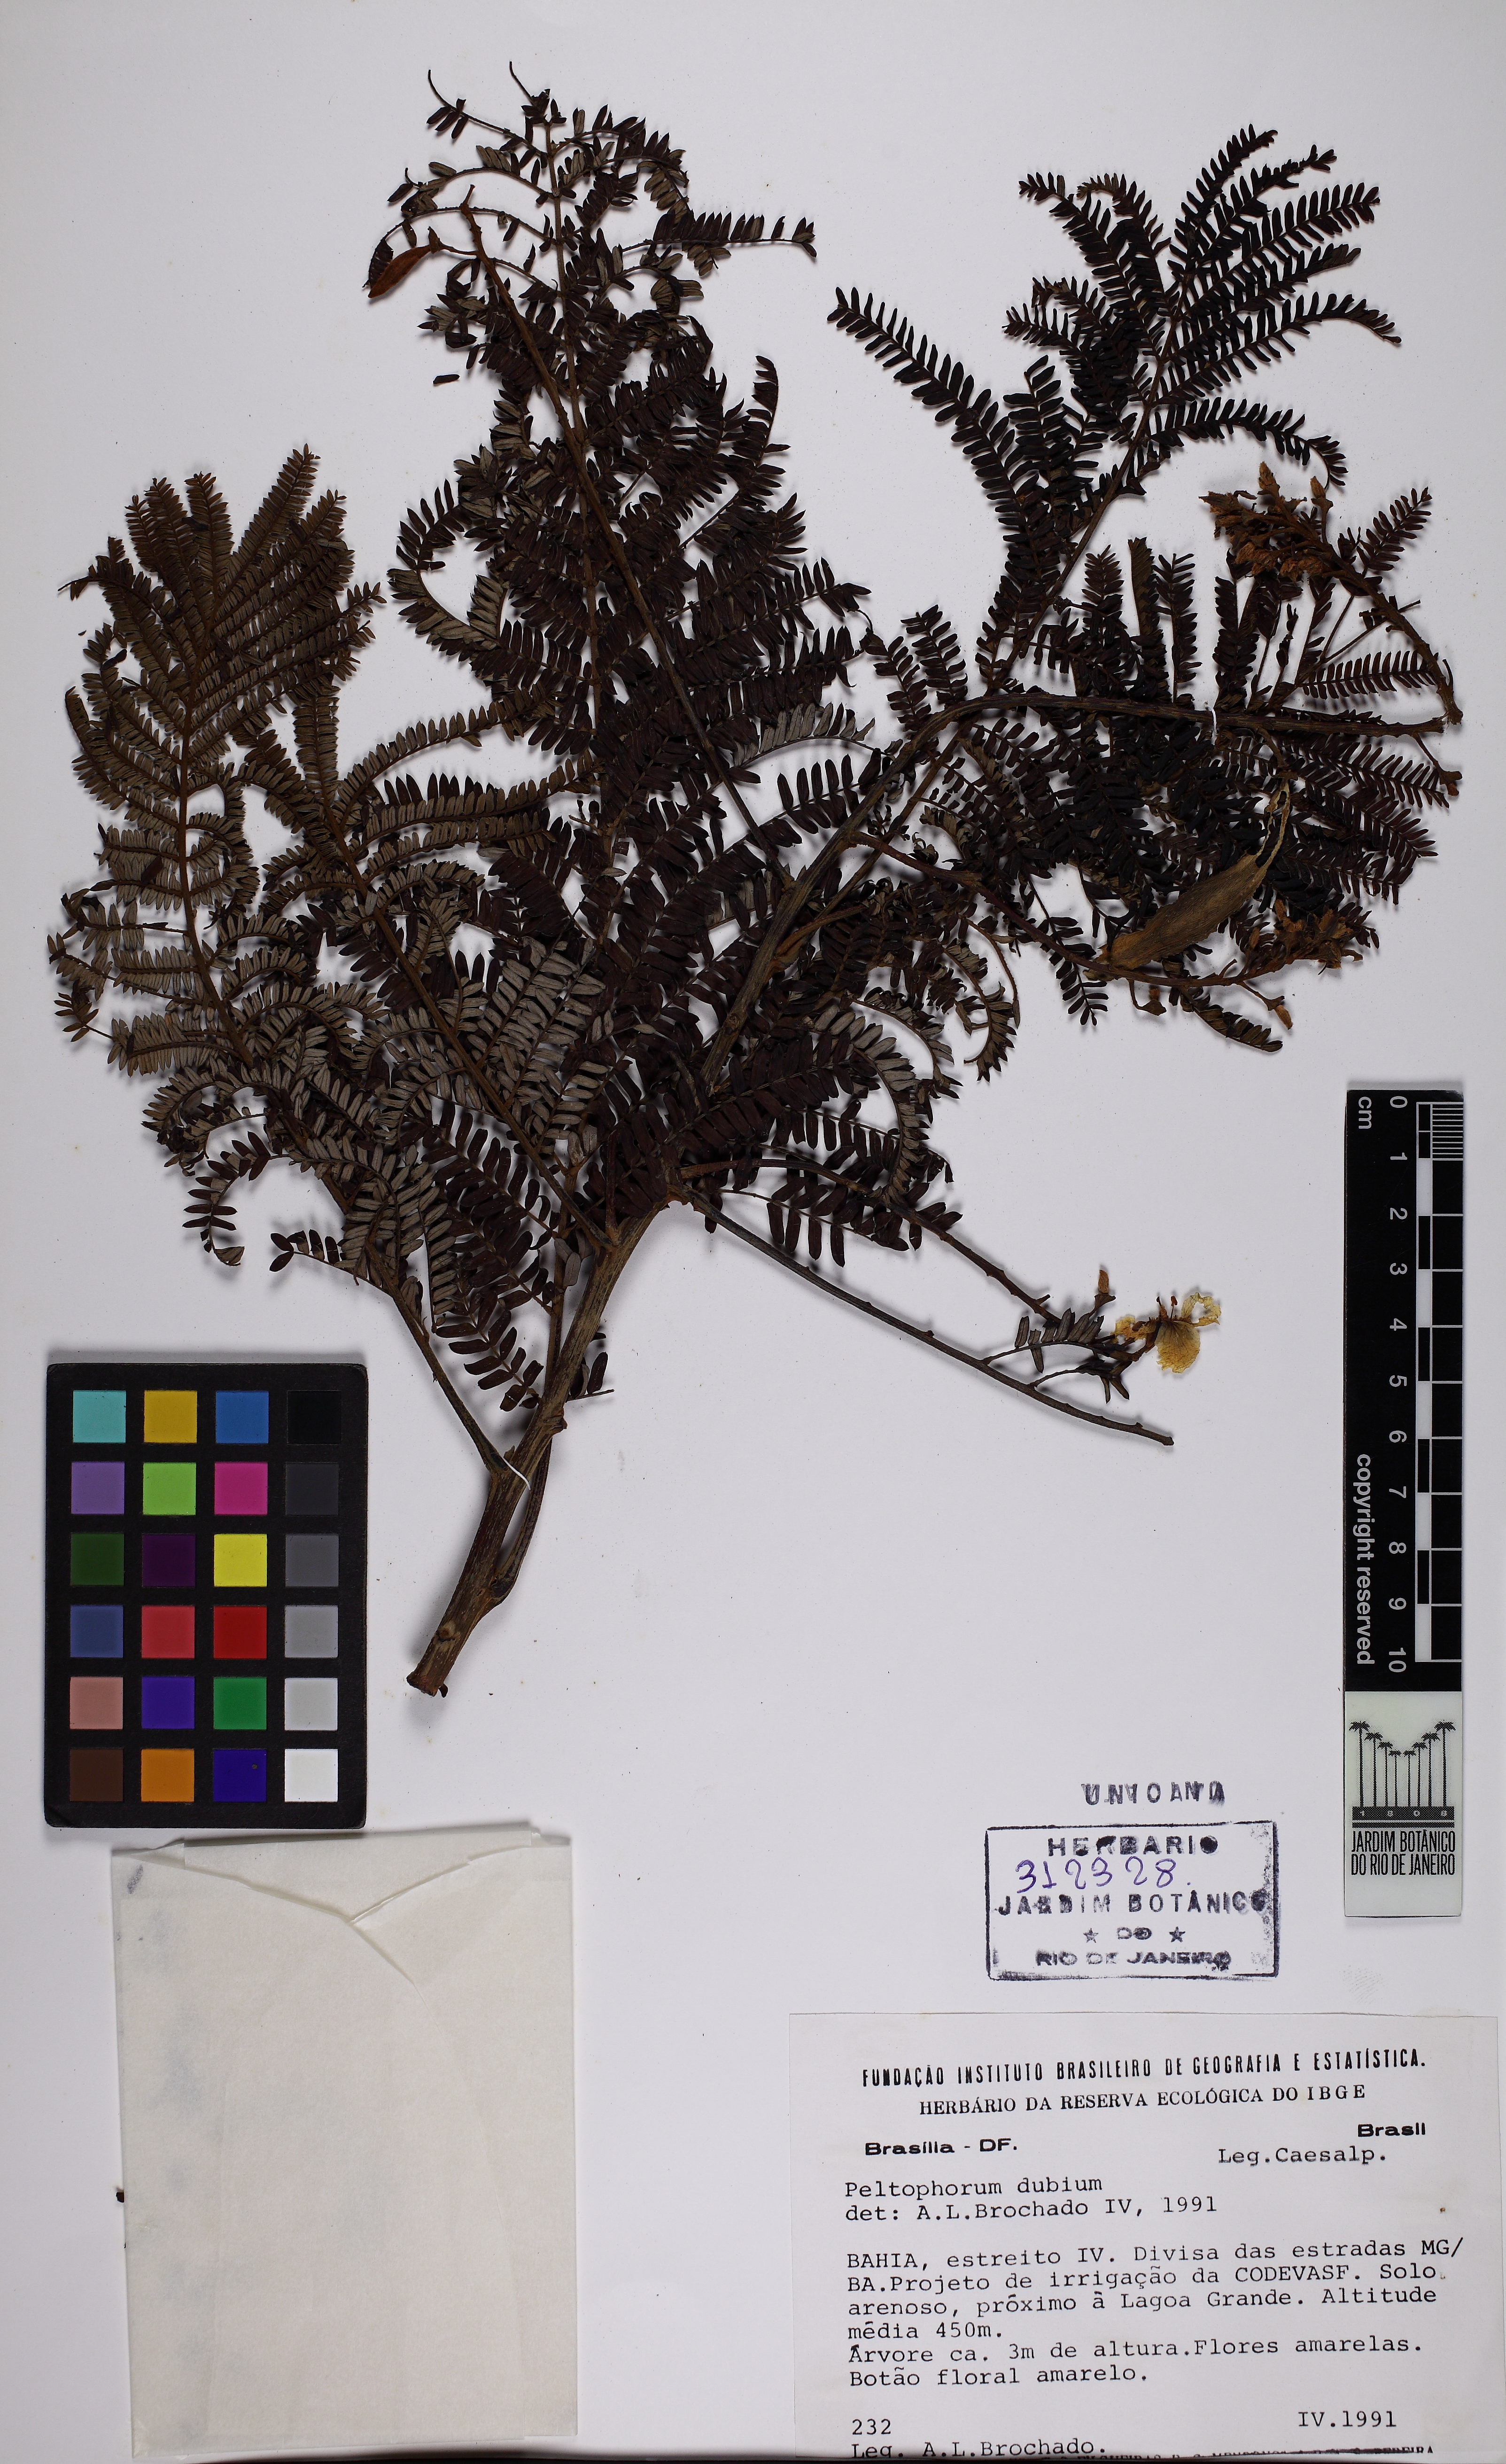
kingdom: Plantae
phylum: Tracheophyta
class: Magnoliopsida
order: Fabales
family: Fabaceae
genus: Peltophorum
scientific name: Peltophorum dubium
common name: Horsebush
